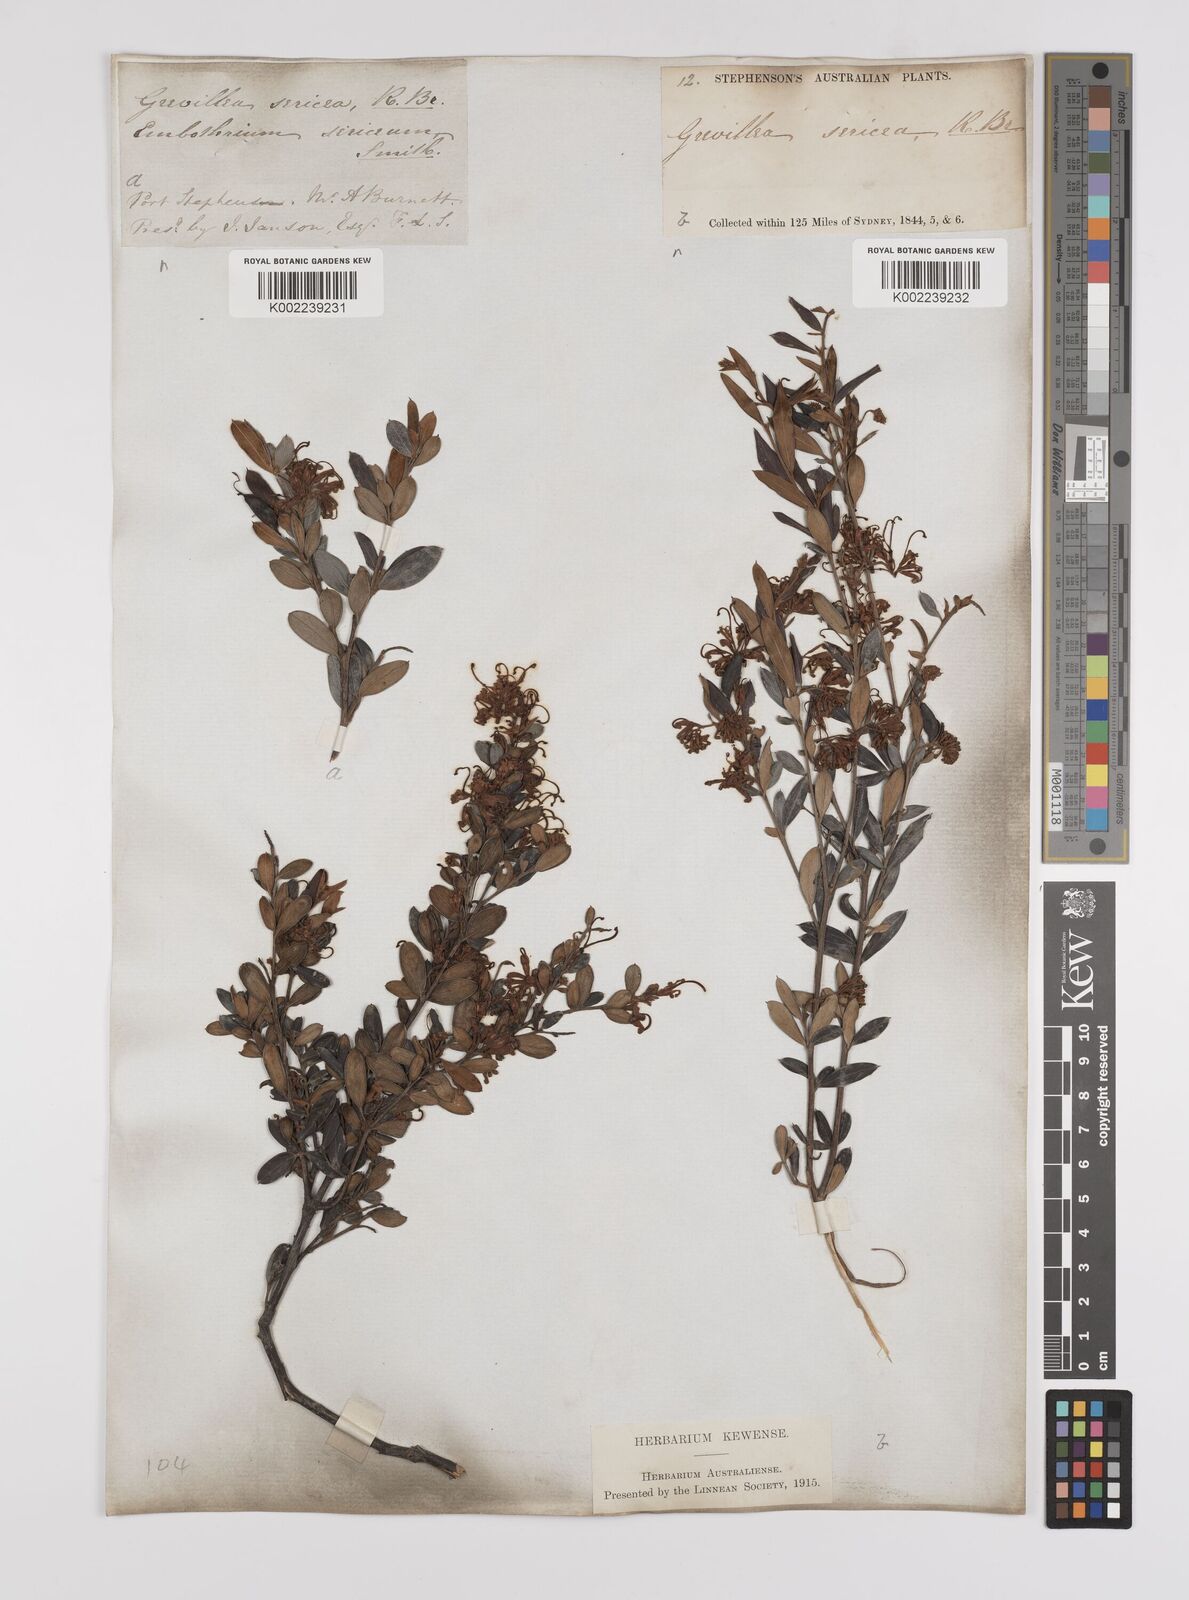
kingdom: Plantae
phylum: Tracheophyta
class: Magnoliopsida
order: Proteales
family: Proteaceae
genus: Grevillea
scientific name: Grevillea sericea
